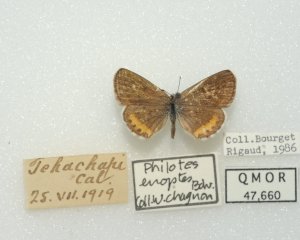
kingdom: Animalia
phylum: Arthropoda
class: Insecta
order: Lepidoptera
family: Lycaenidae
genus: Euphilotes
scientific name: Euphilotes enoptes
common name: Dotted Blue
